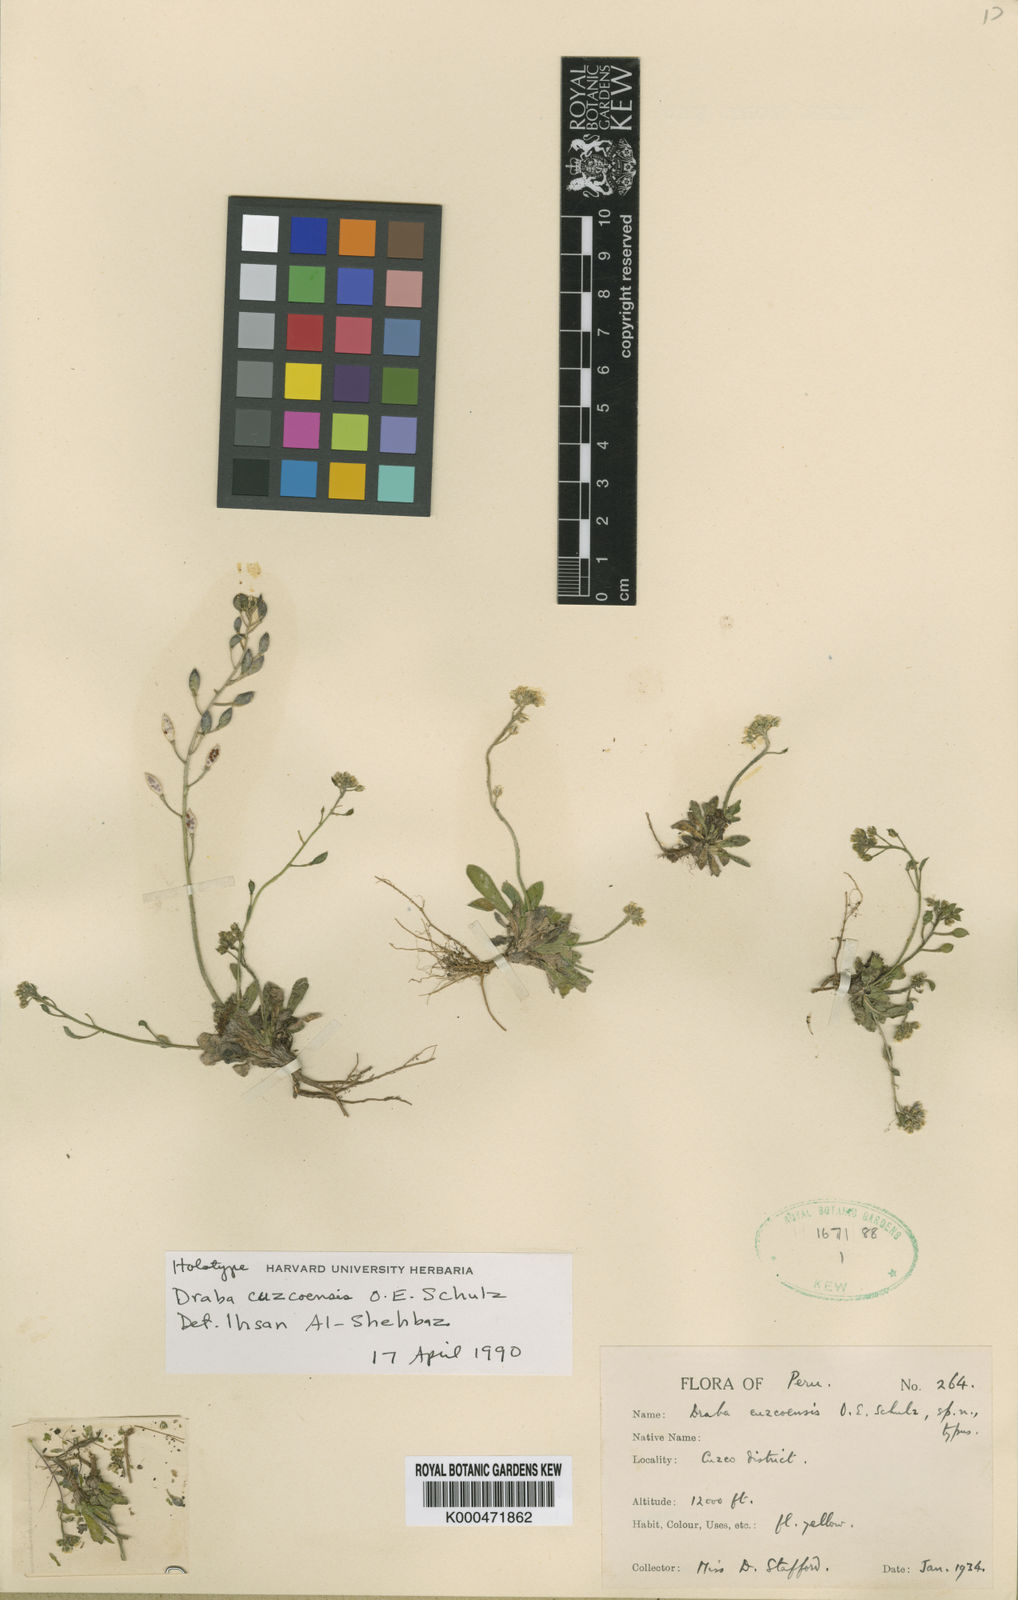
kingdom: Plantae
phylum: Tracheophyta
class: Magnoliopsida
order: Brassicales
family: Brassicaceae
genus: Draba
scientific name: Draba cuzcoensis
